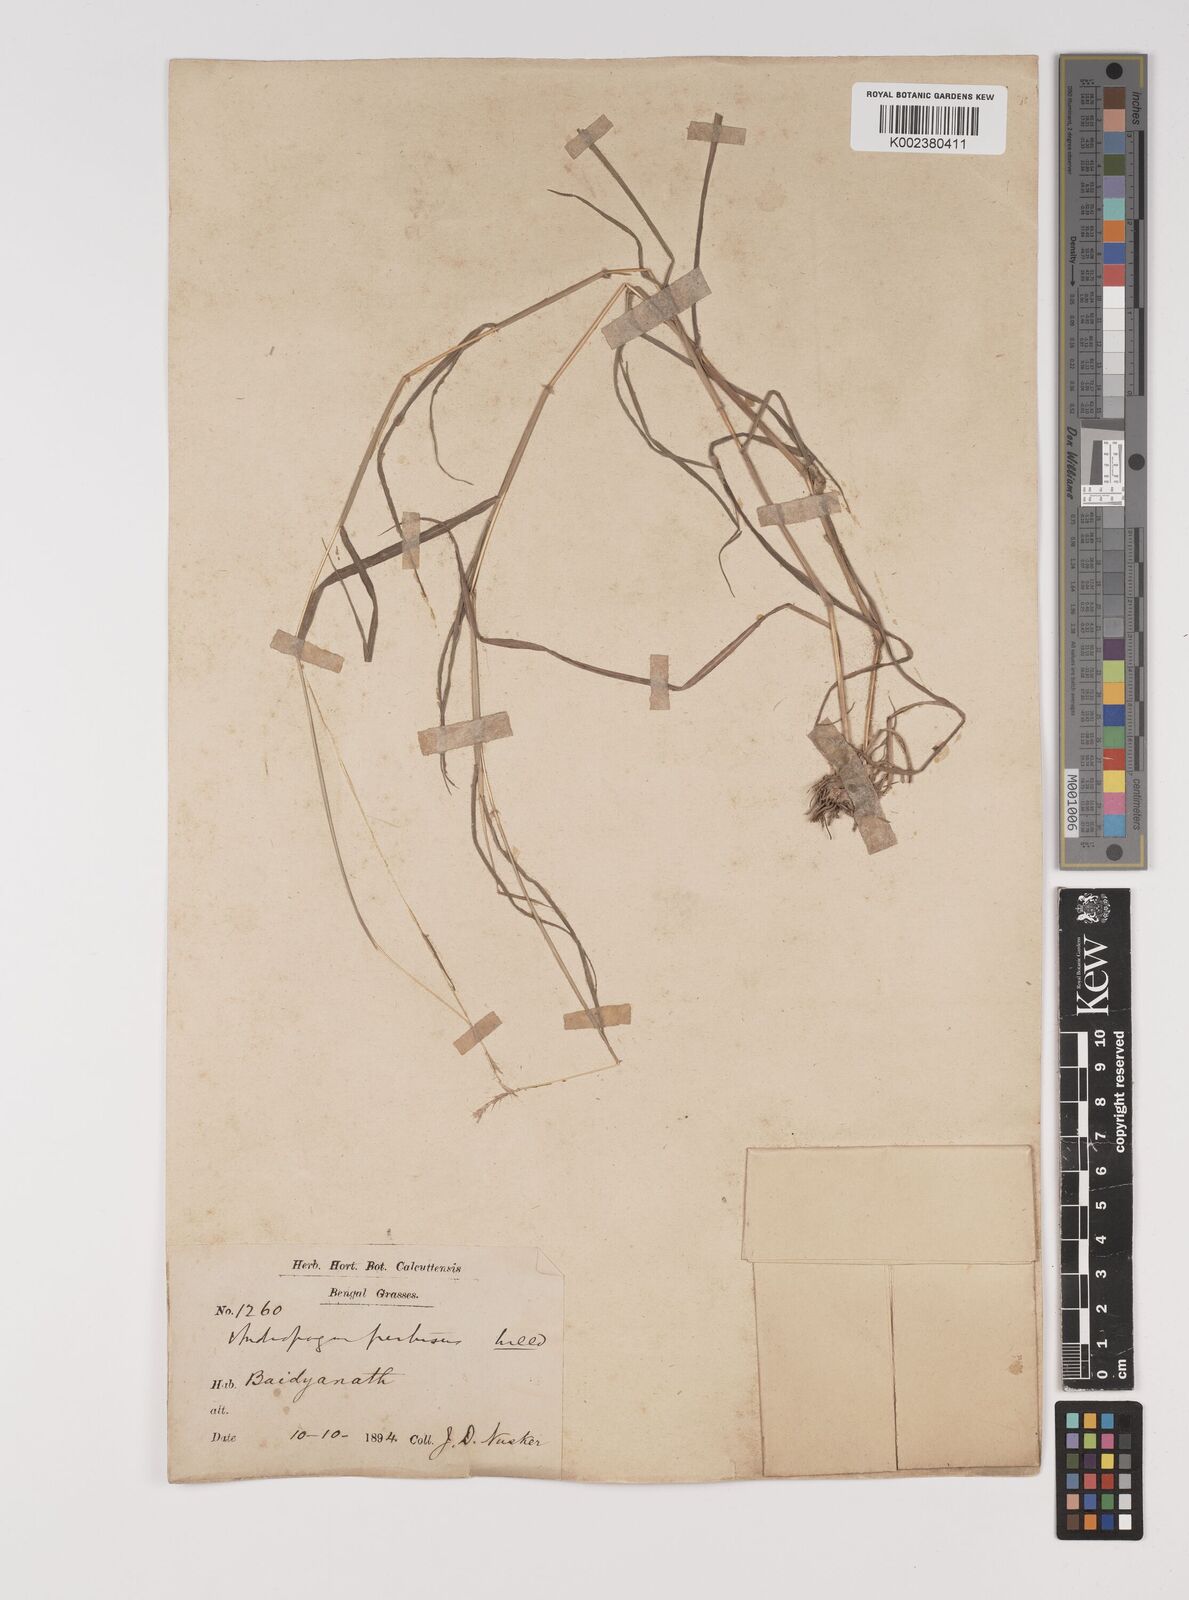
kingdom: Plantae
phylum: Tracheophyta
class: Liliopsida
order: Poales
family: Poaceae
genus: Bothriochloa
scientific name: Bothriochloa pertusa
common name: Pitted beardgrass
